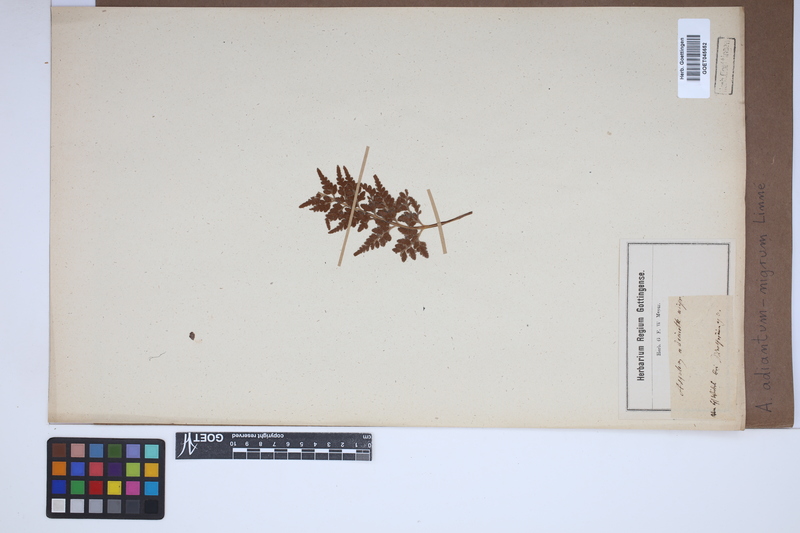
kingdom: Plantae
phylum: Tracheophyta
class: Polypodiopsida
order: Polypodiales
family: Aspleniaceae
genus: Asplenium
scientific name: Asplenium adiantum-nigrum
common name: Black spleenwort
